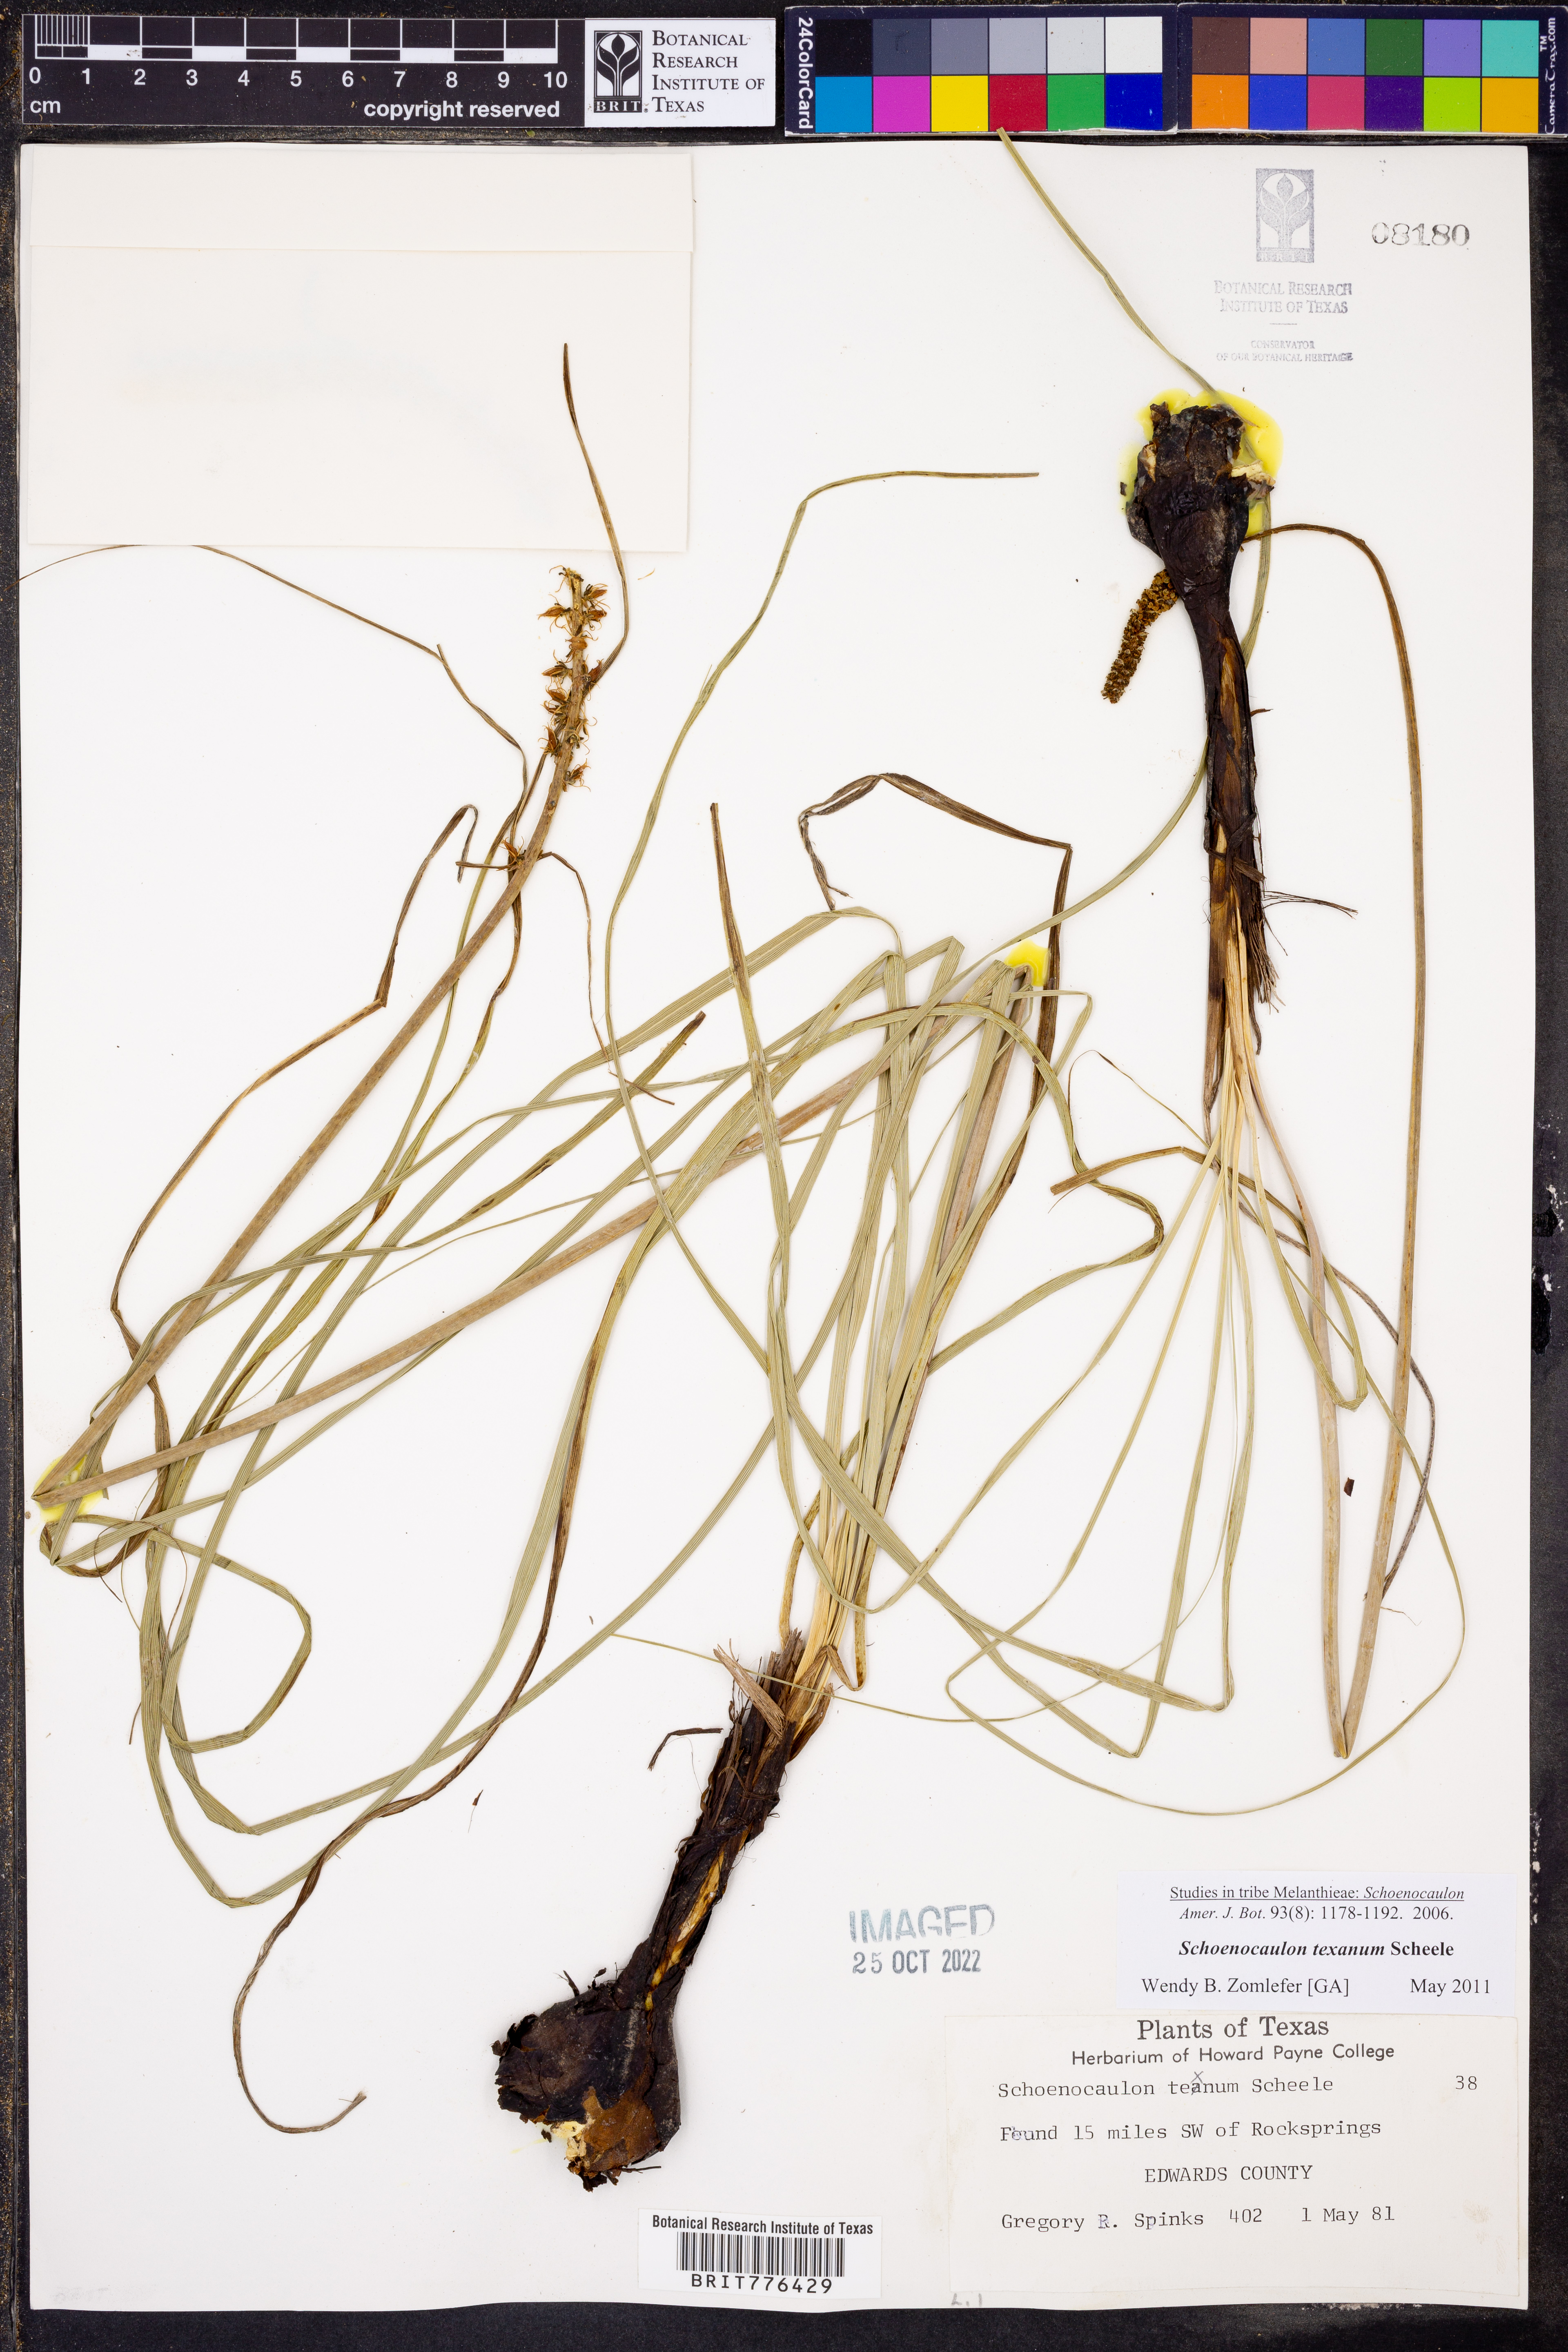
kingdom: Plantae
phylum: Tracheophyta
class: Liliopsida
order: Liliales
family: Melanthiaceae
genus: Schoenocaulon
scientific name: Schoenocaulon texanum
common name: Texas feather-shank
